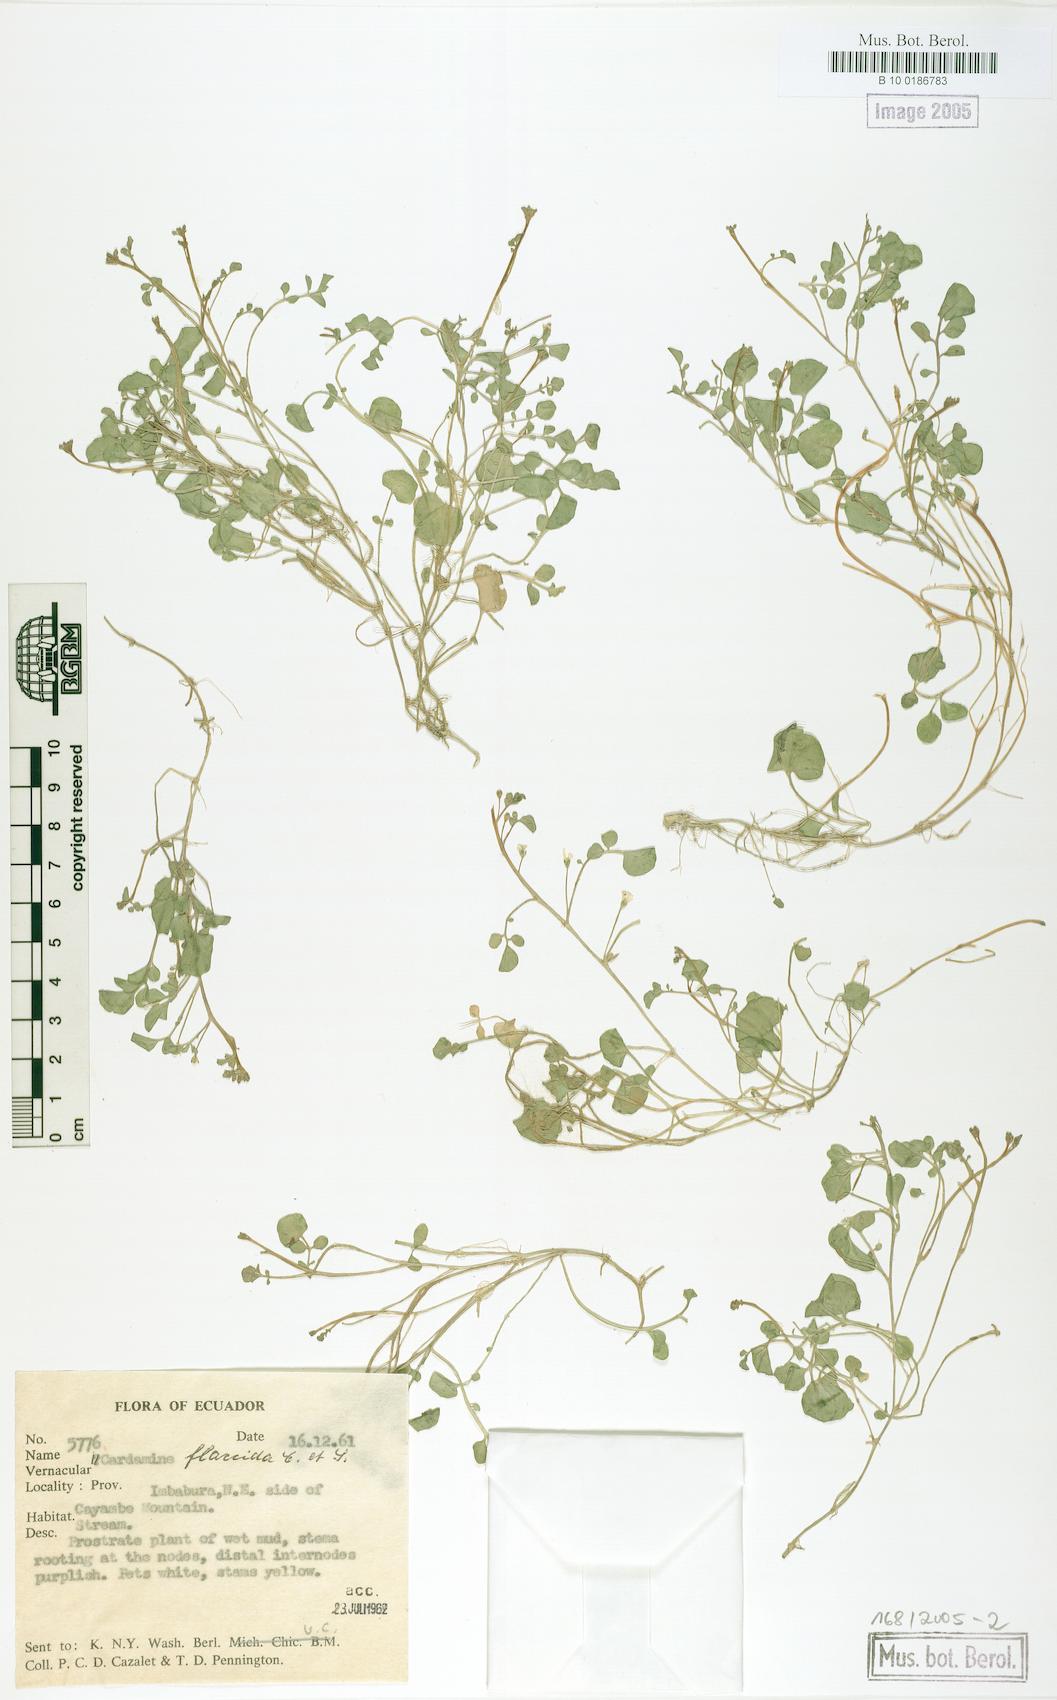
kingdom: Plantae
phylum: Tracheophyta
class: Magnoliopsida
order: Brassicales
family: Brassicaceae
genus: Cardamine
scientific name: Cardamine flaccida
